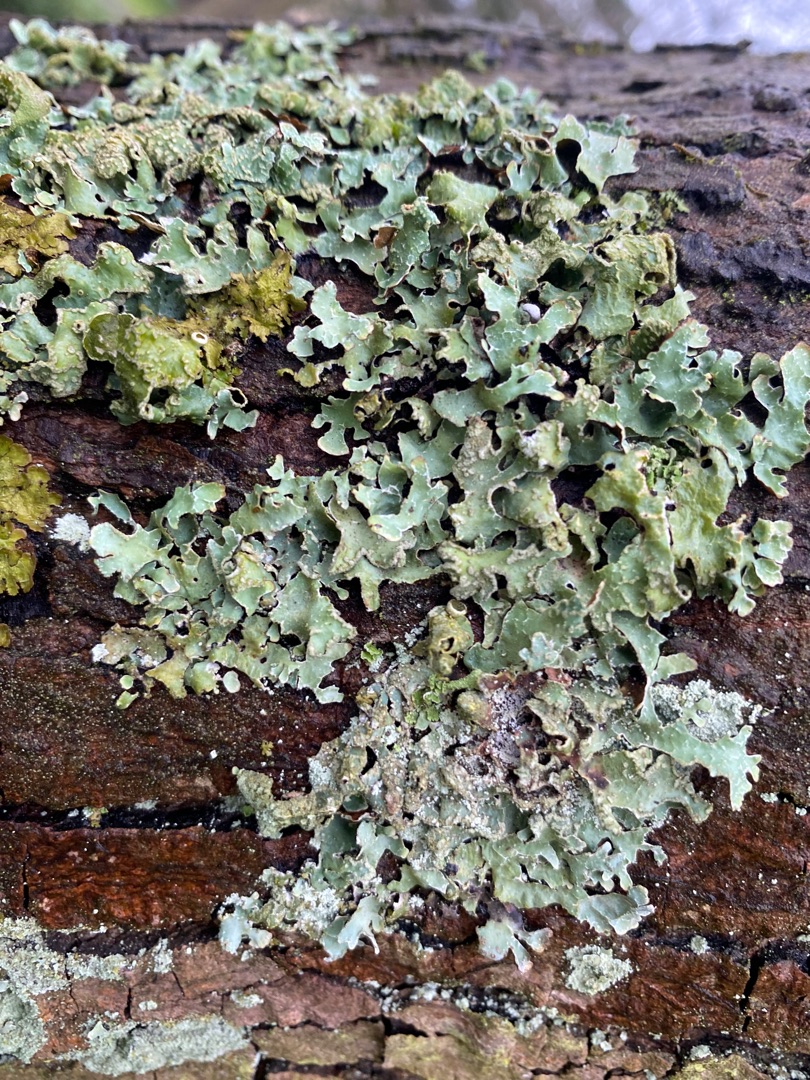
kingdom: Fungi
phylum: Ascomycota
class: Lecanoromycetes
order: Lecanorales
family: Parmeliaceae
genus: Parmelia
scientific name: Parmelia sulcata
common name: Rynket skållav
